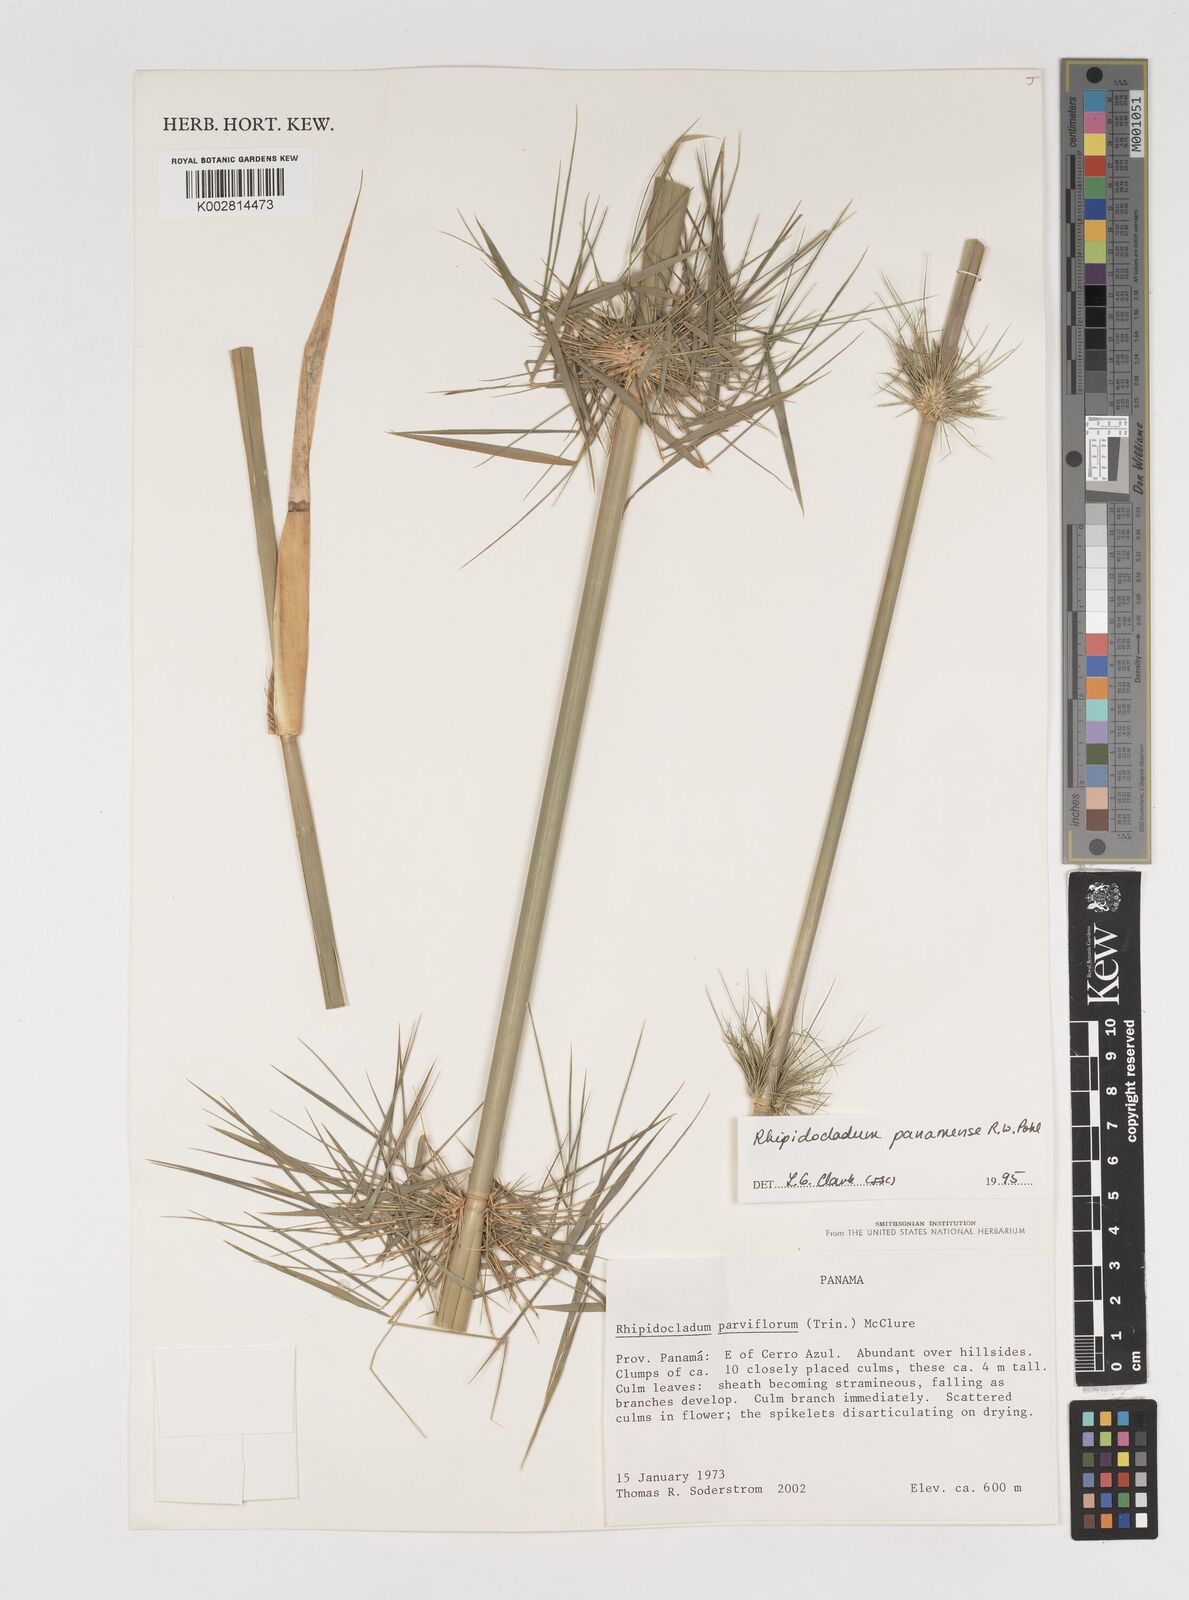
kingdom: Plantae
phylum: Tracheophyta
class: Liliopsida
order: Poales
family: Poaceae
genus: Rhipidocladum
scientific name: Rhipidocladum panamense
